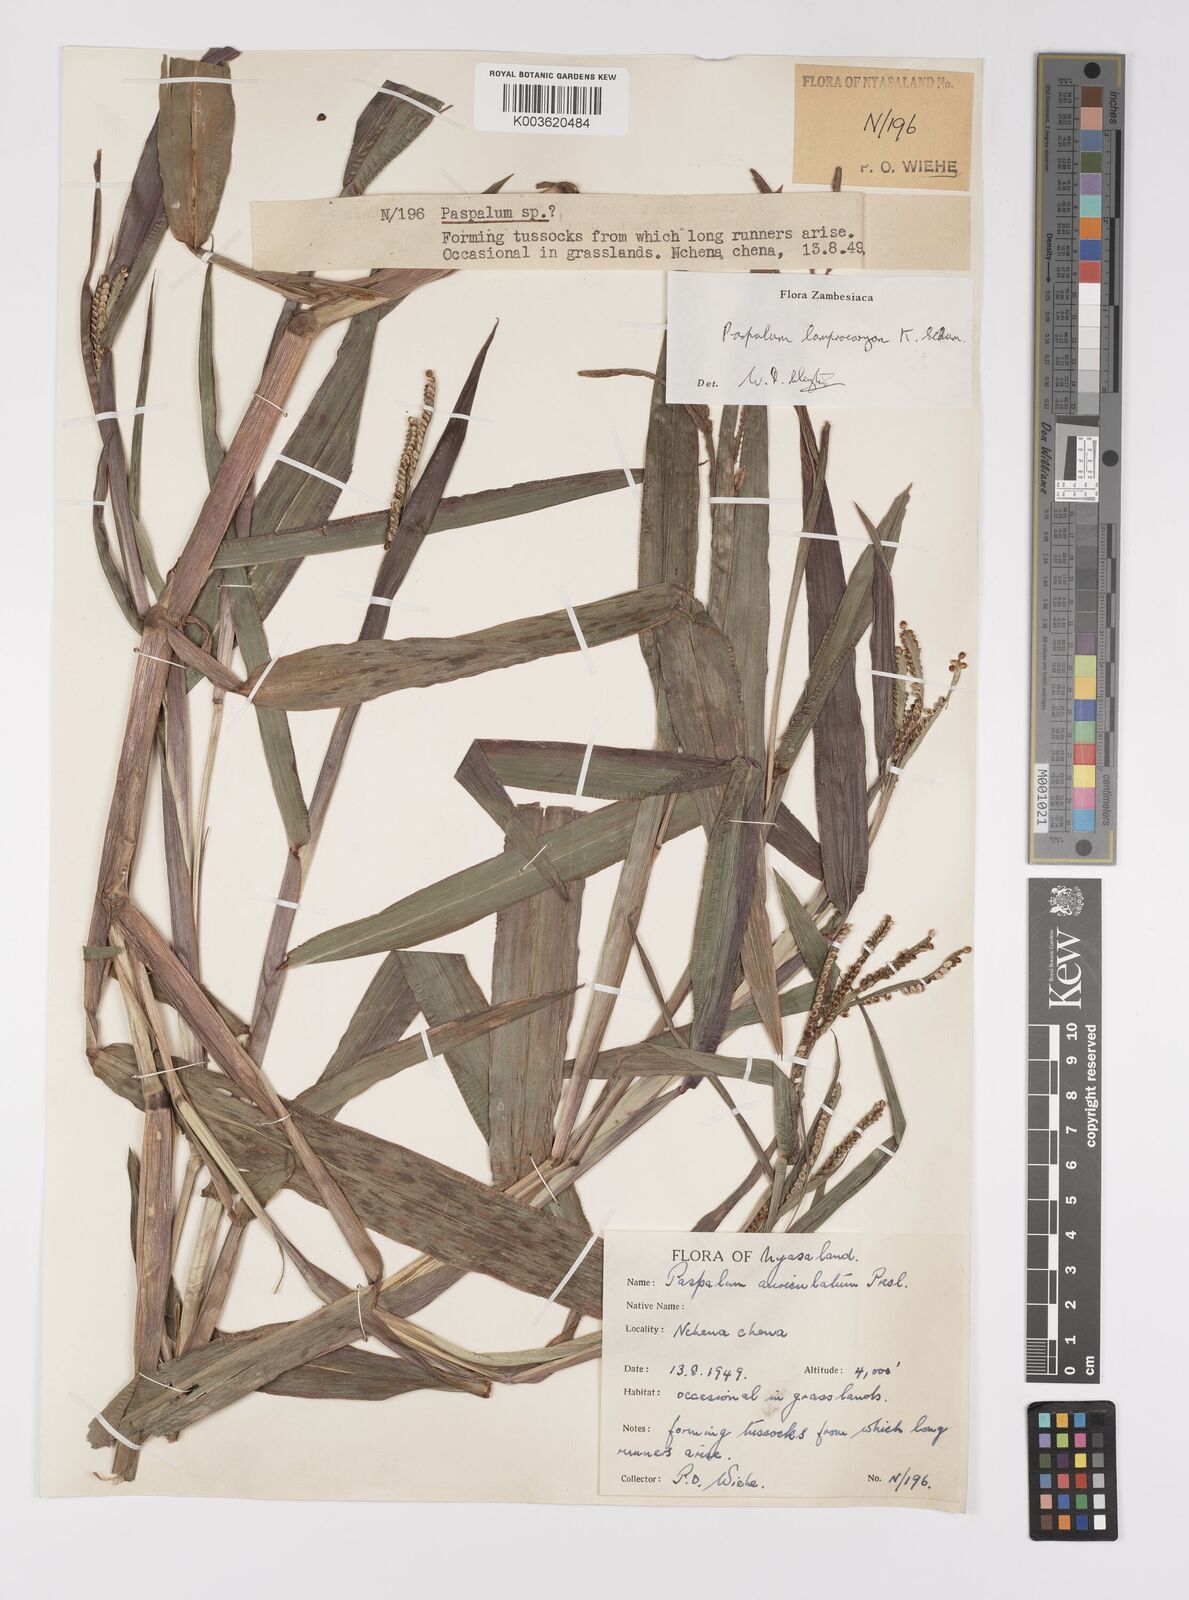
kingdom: Plantae
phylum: Tracheophyta
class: Liliopsida
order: Poales
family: Poaceae
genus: Paspalum
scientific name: Paspalum lamprocaryon
